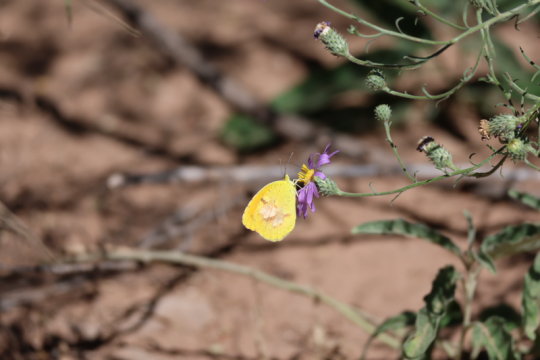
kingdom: Animalia
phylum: Arthropoda
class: Insecta
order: Lepidoptera
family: Pieridae
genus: Abaeis
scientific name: Abaeis nicippe
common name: Sleepy Orange
